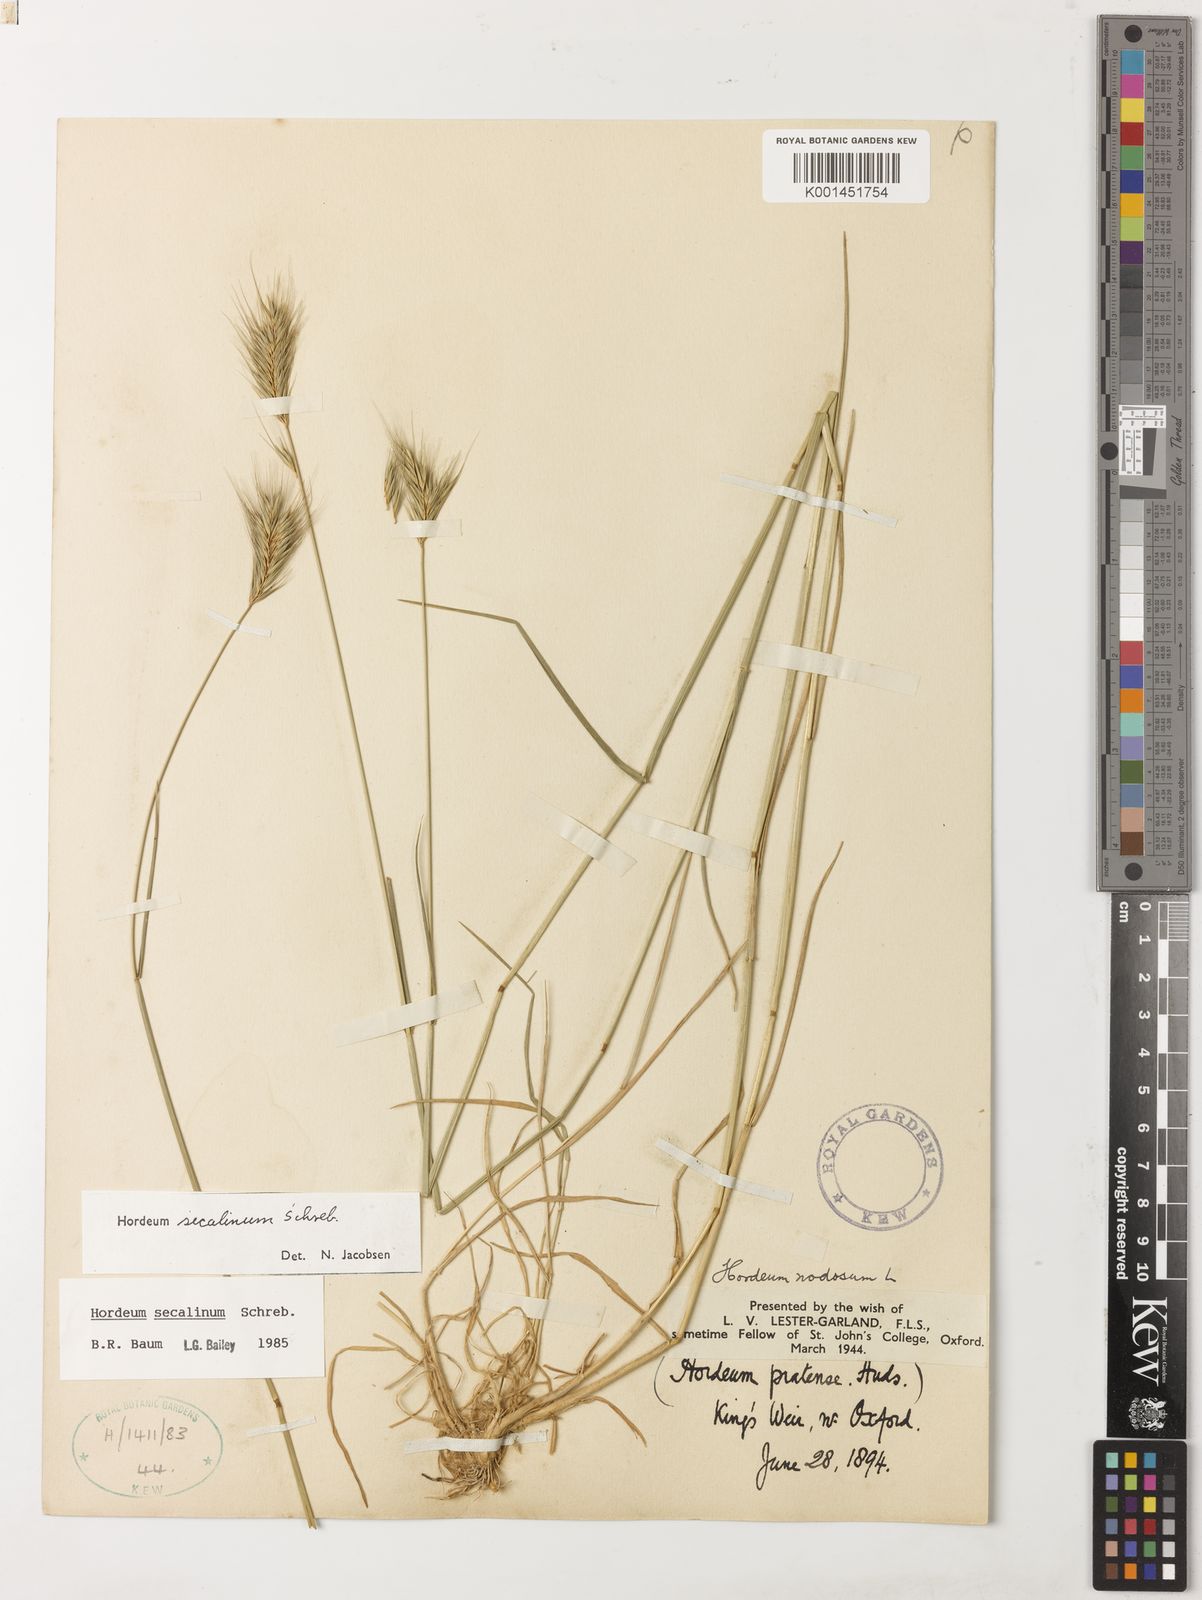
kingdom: Plantae
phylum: Tracheophyta
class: Liliopsida
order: Poales
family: Poaceae
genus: Hordeum
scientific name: Hordeum secalinum
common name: Meadow barley
